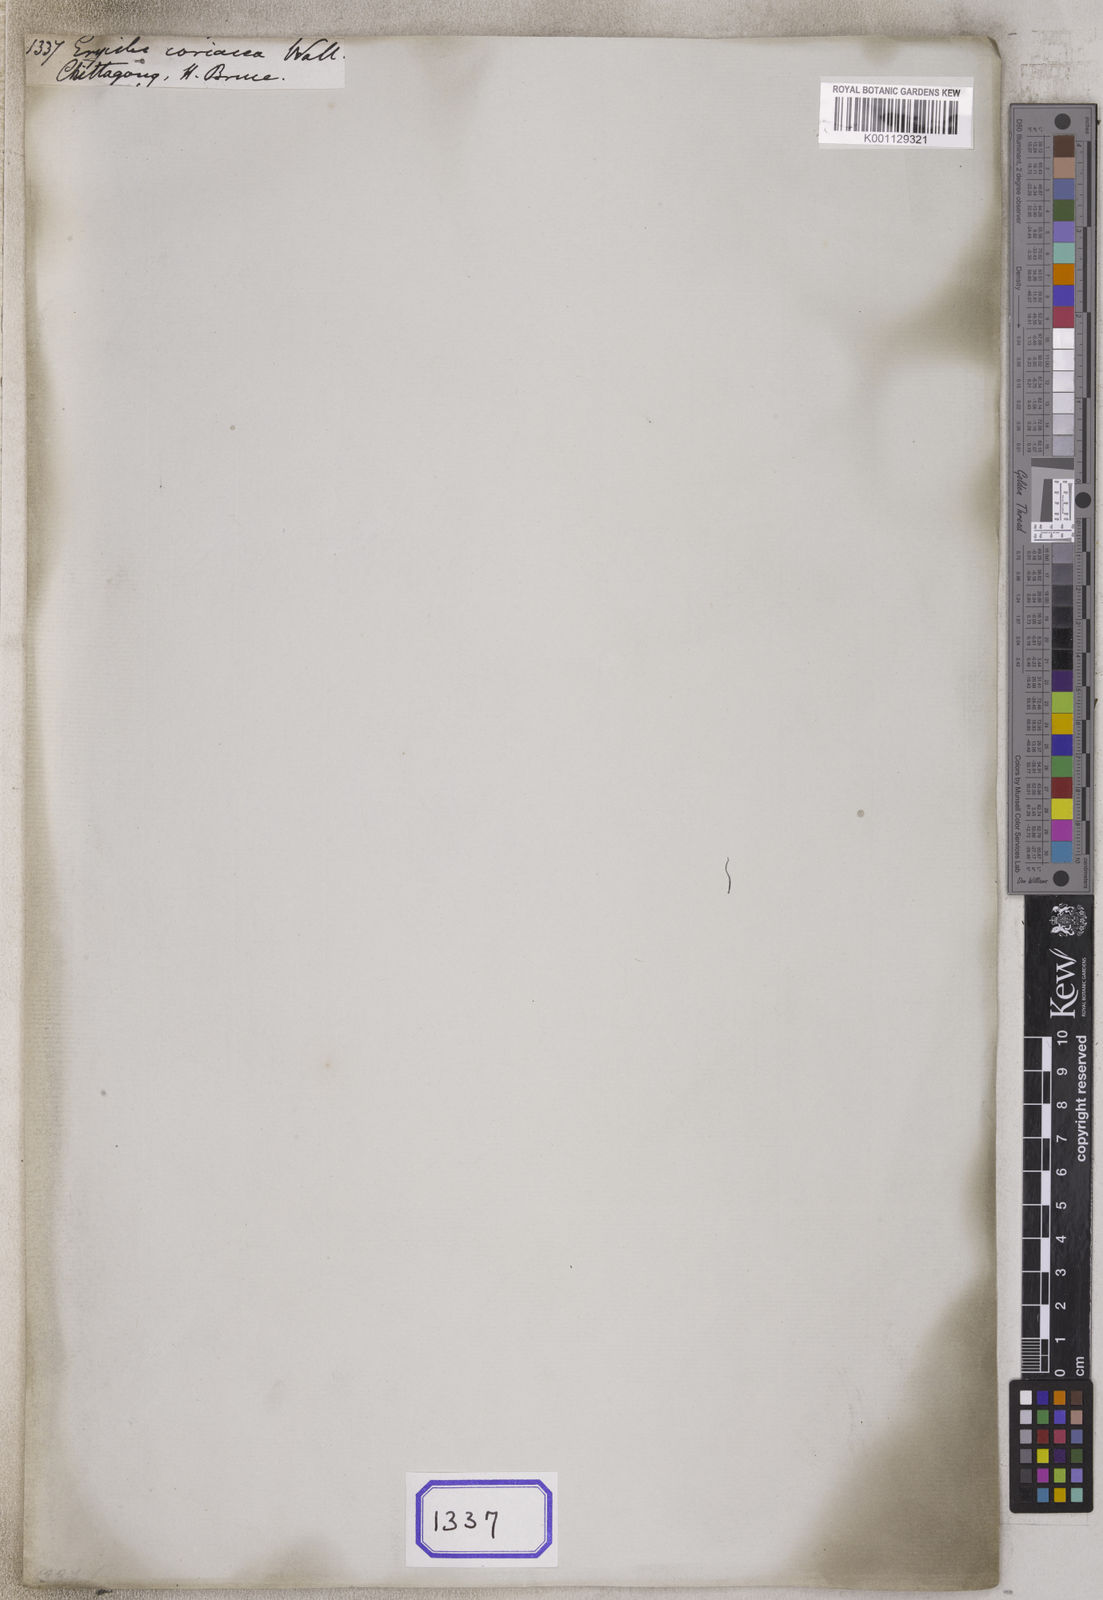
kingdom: Plantae
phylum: Tracheophyta
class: Magnoliopsida
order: Solanales
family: Convolvulaceae
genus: Erycibe
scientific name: Erycibe
